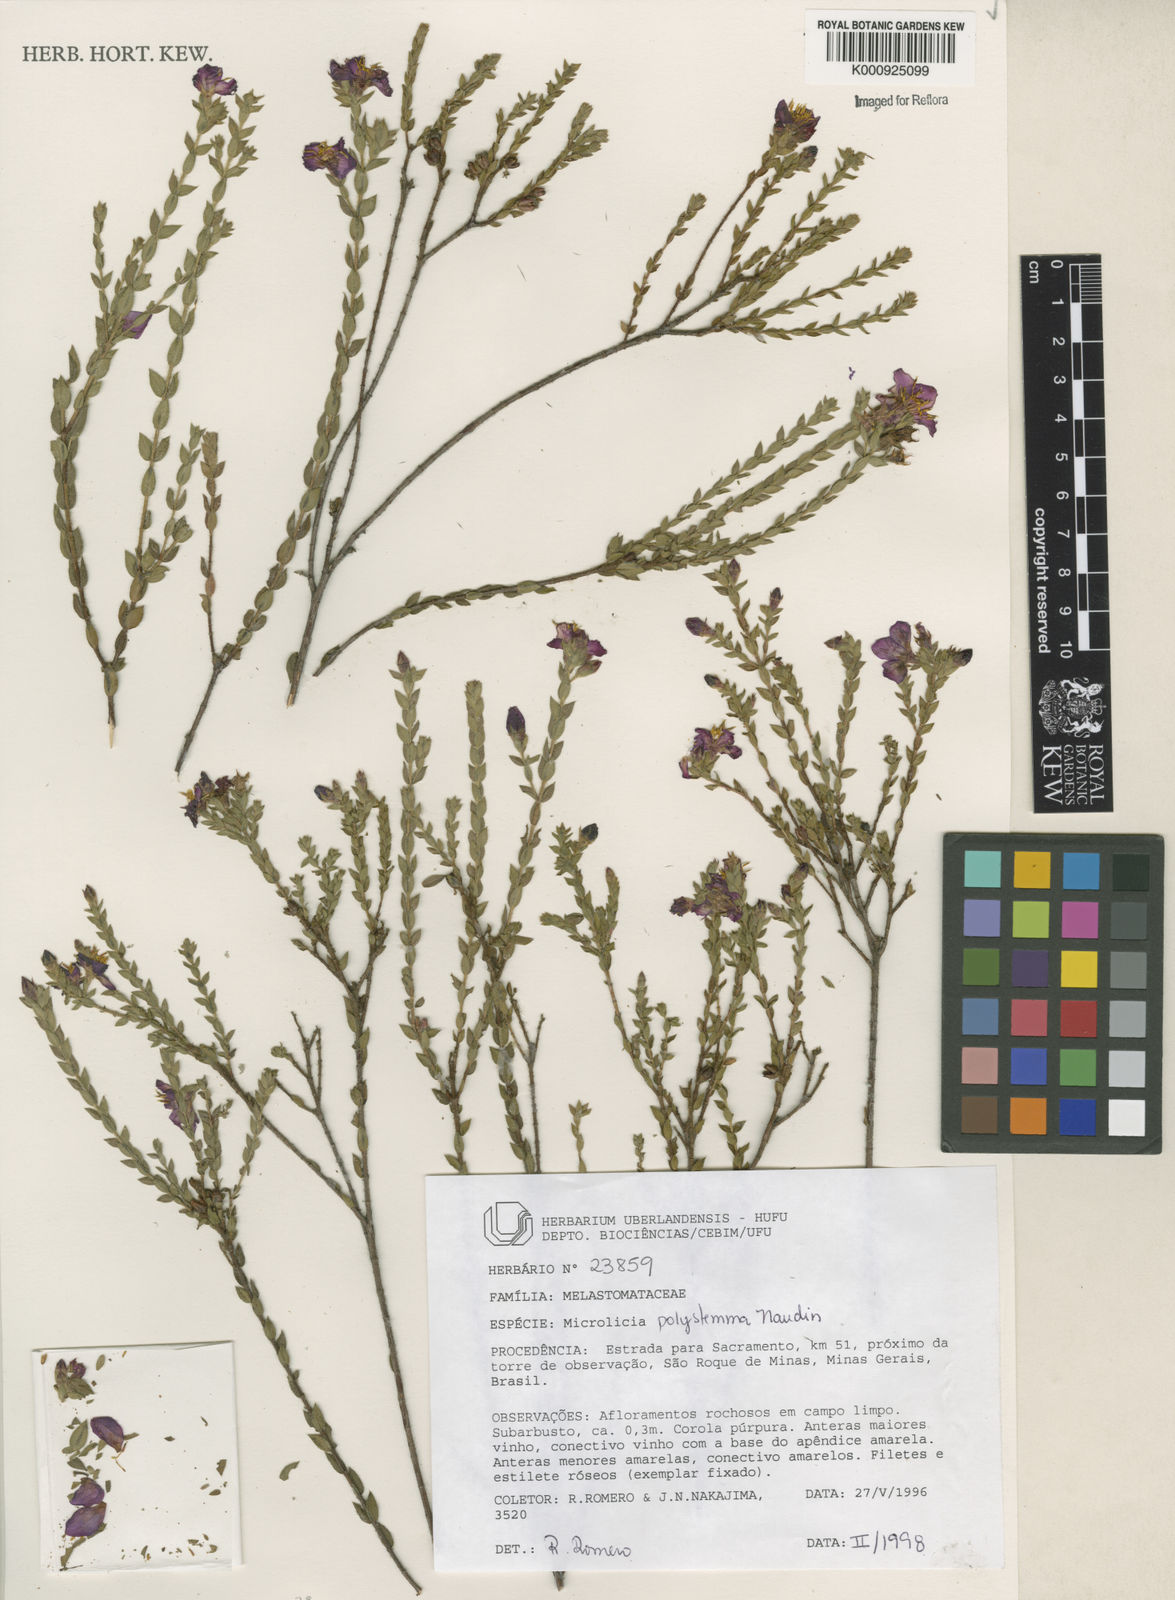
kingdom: Plantae
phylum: Tracheophyta
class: Magnoliopsida
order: Myrtales
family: Melastomataceae
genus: Microlicia
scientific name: Microlicia polystemma
